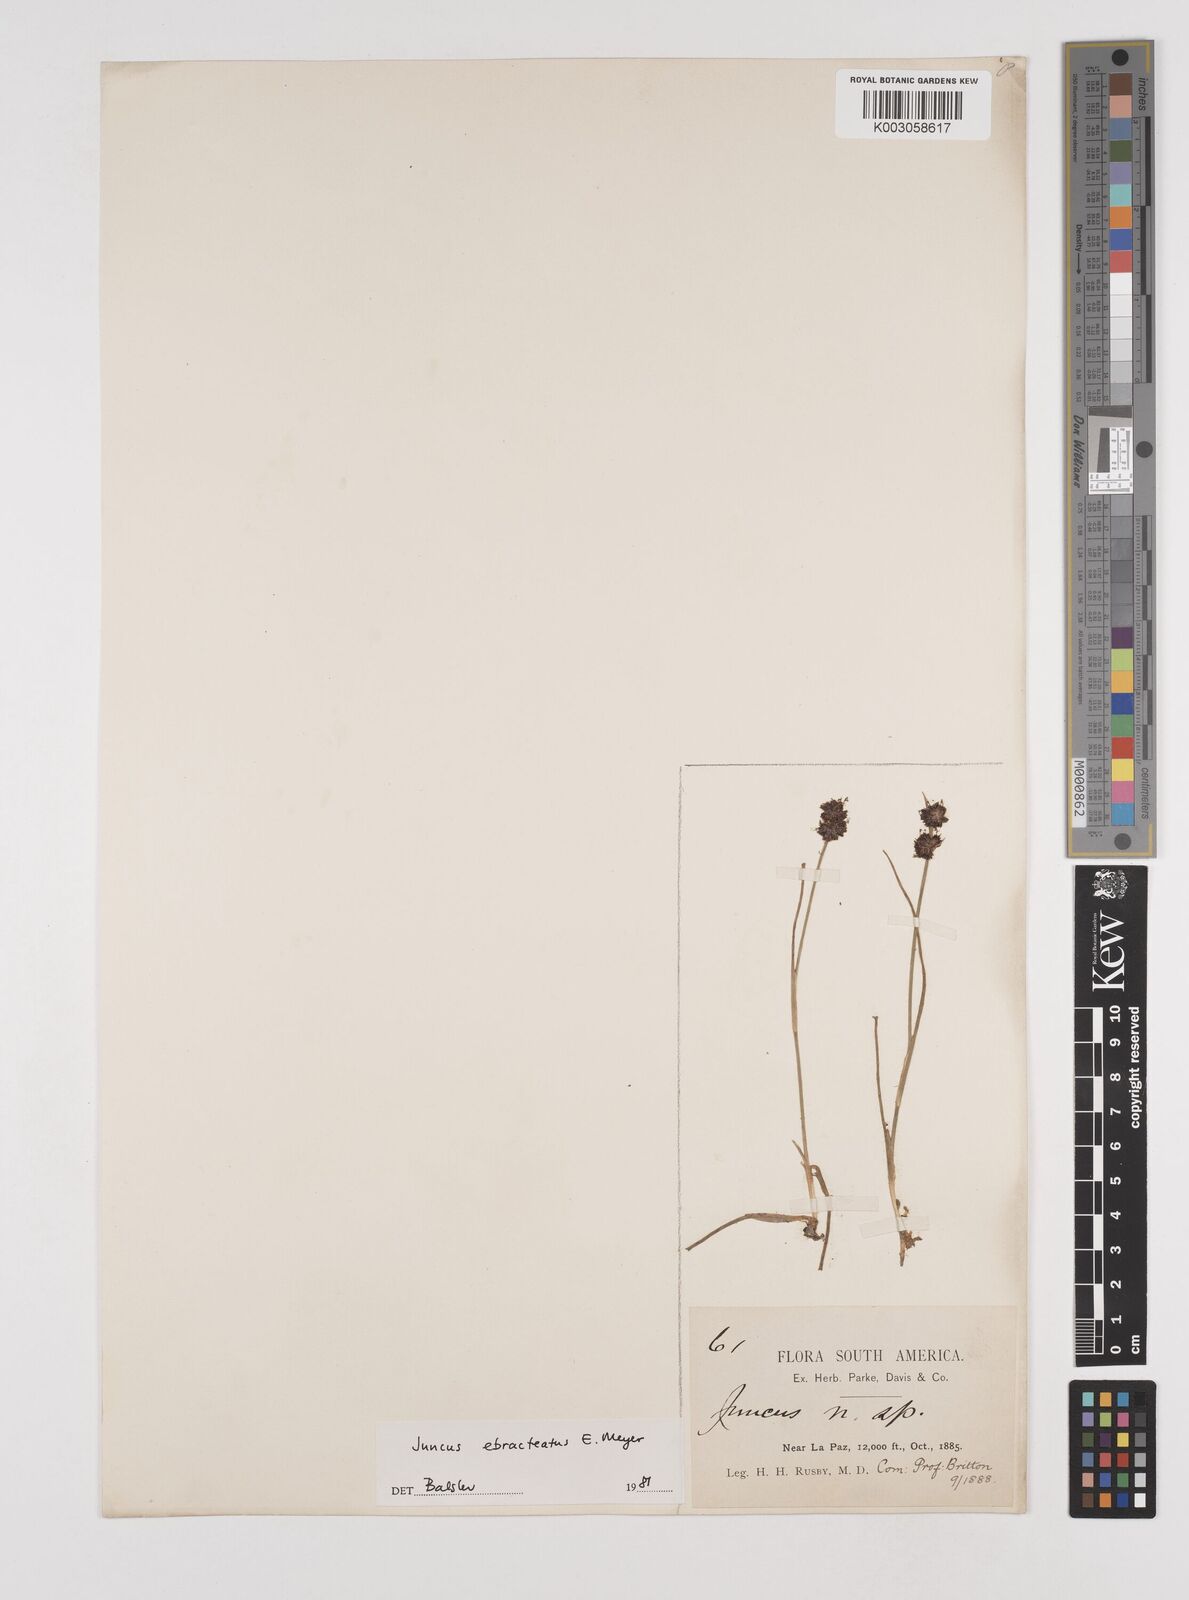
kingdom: Plantae
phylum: Tracheophyta
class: Liliopsida
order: Poales
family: Juncaceae
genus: Juncus
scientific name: Juncus ebracteatus
